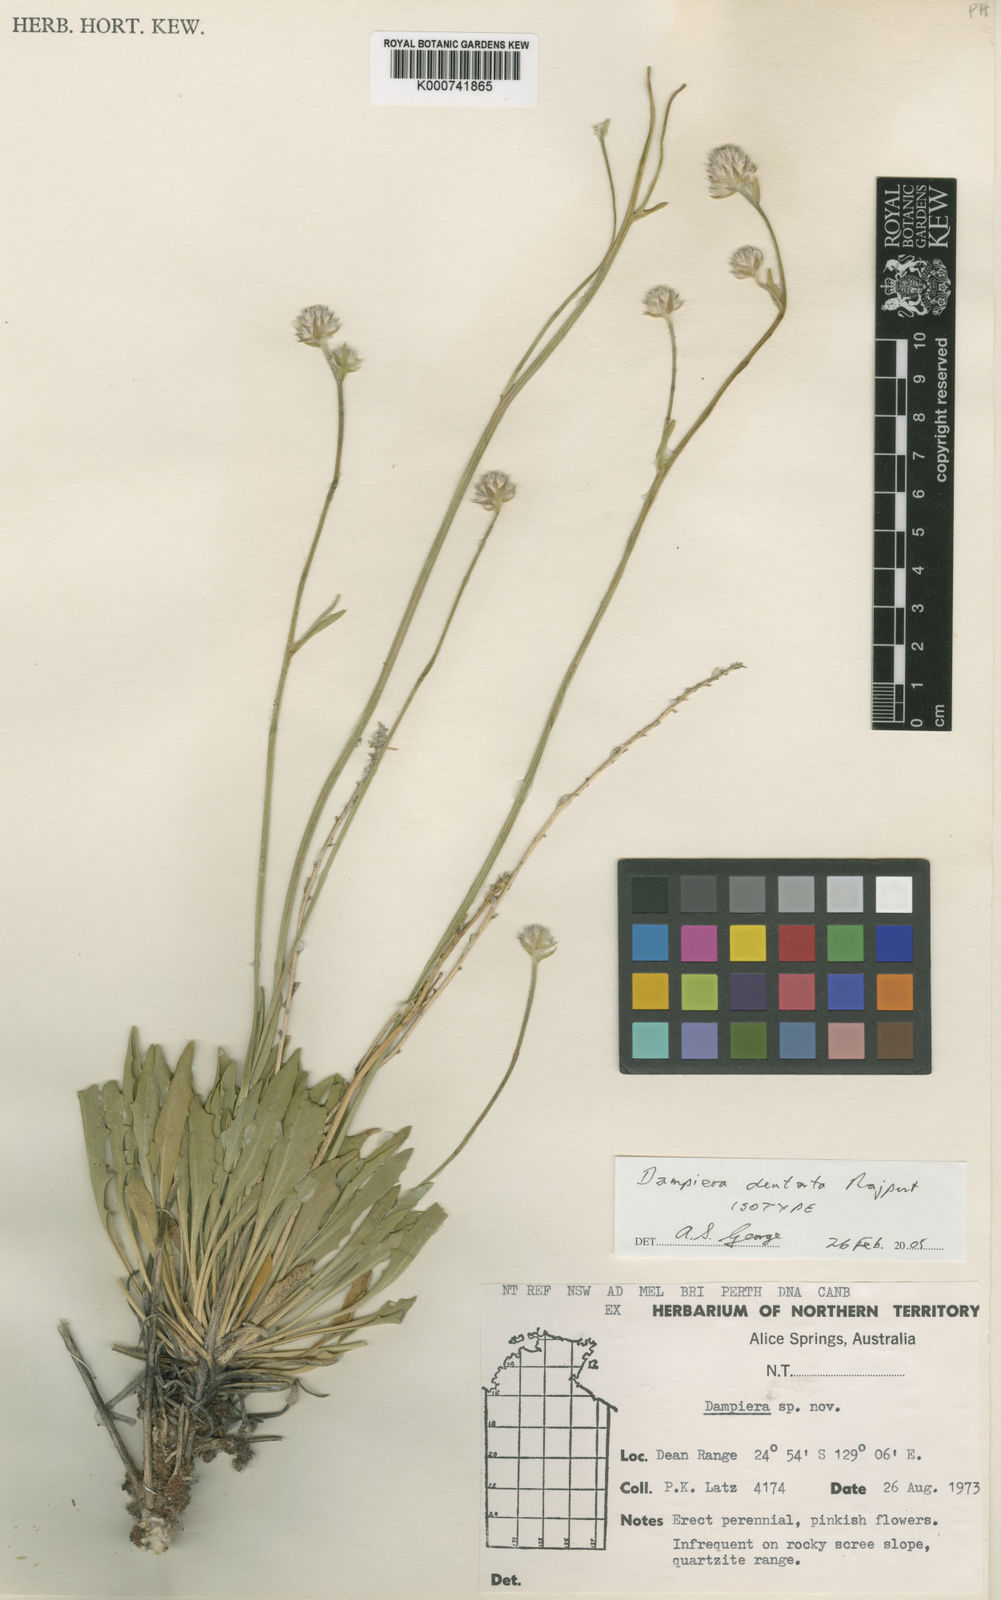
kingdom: Plantae
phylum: Tracheophyta
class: Magnoliopsida
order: Asterales
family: Goodeniaceae
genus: Dampiera
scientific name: Dampiera dentata
